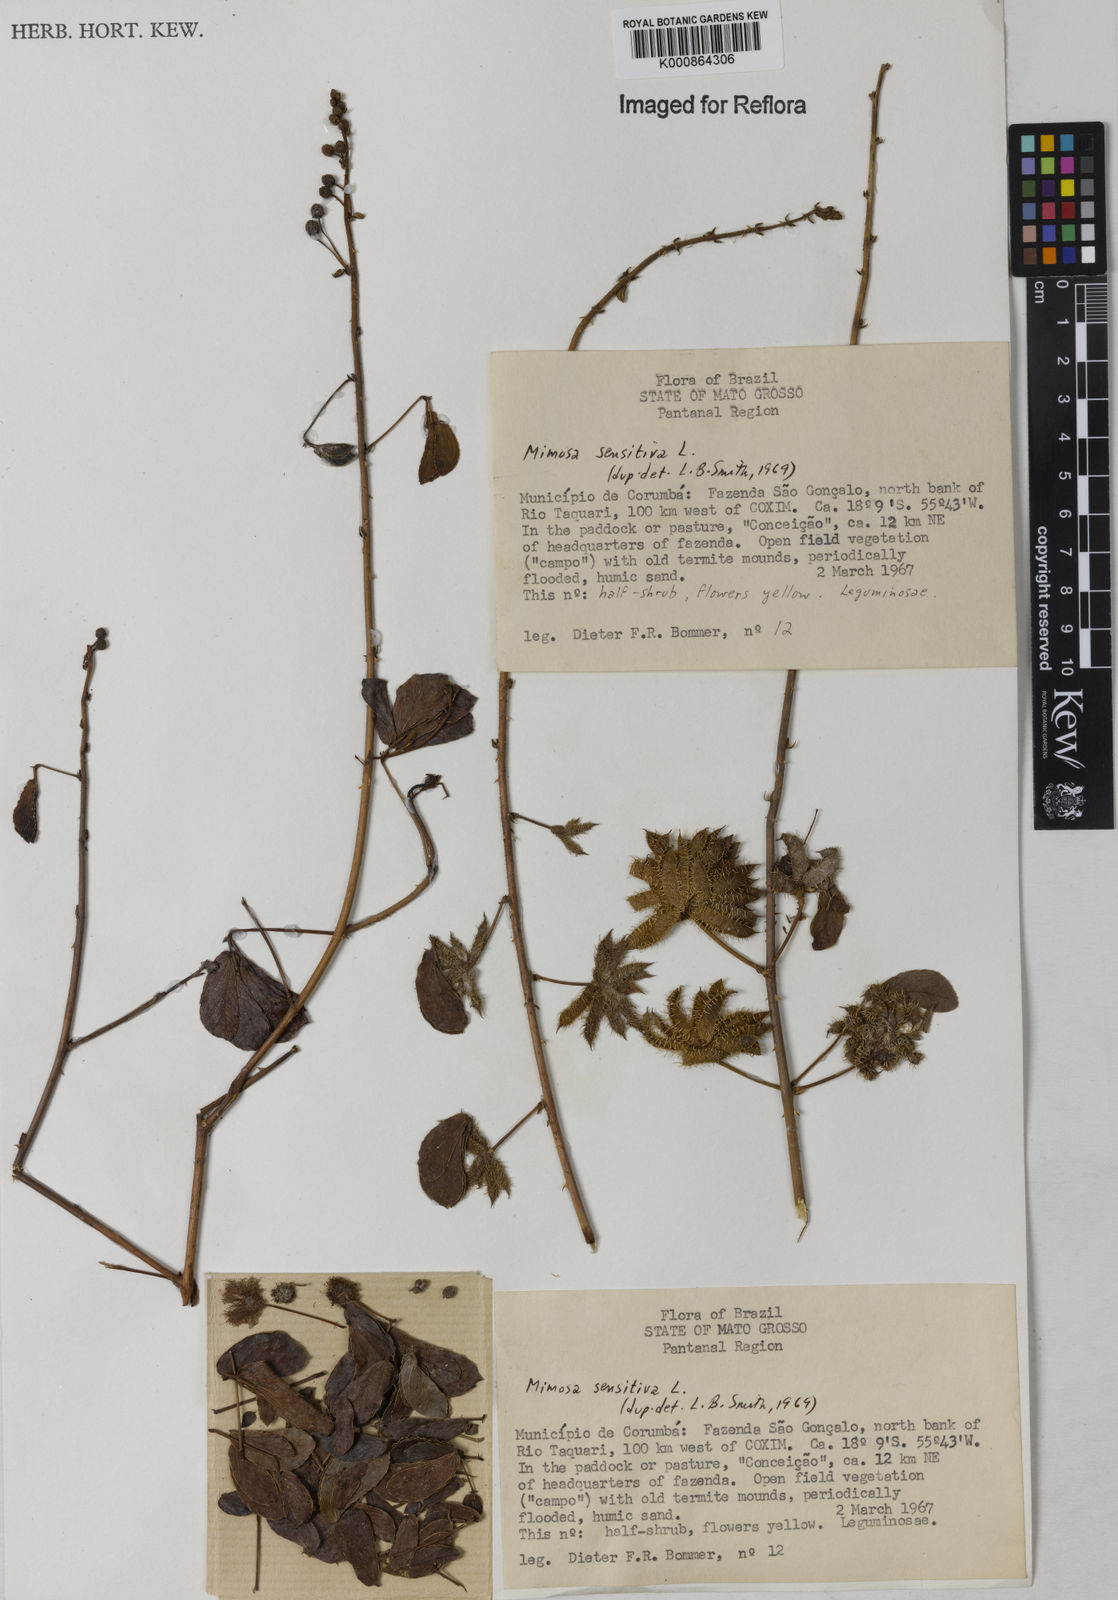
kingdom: Plantae
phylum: Tracheophyta
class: Magnoliopsida
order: Fabales
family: Fabaceae
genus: Mimosa
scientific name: Mimosa sensitiva
